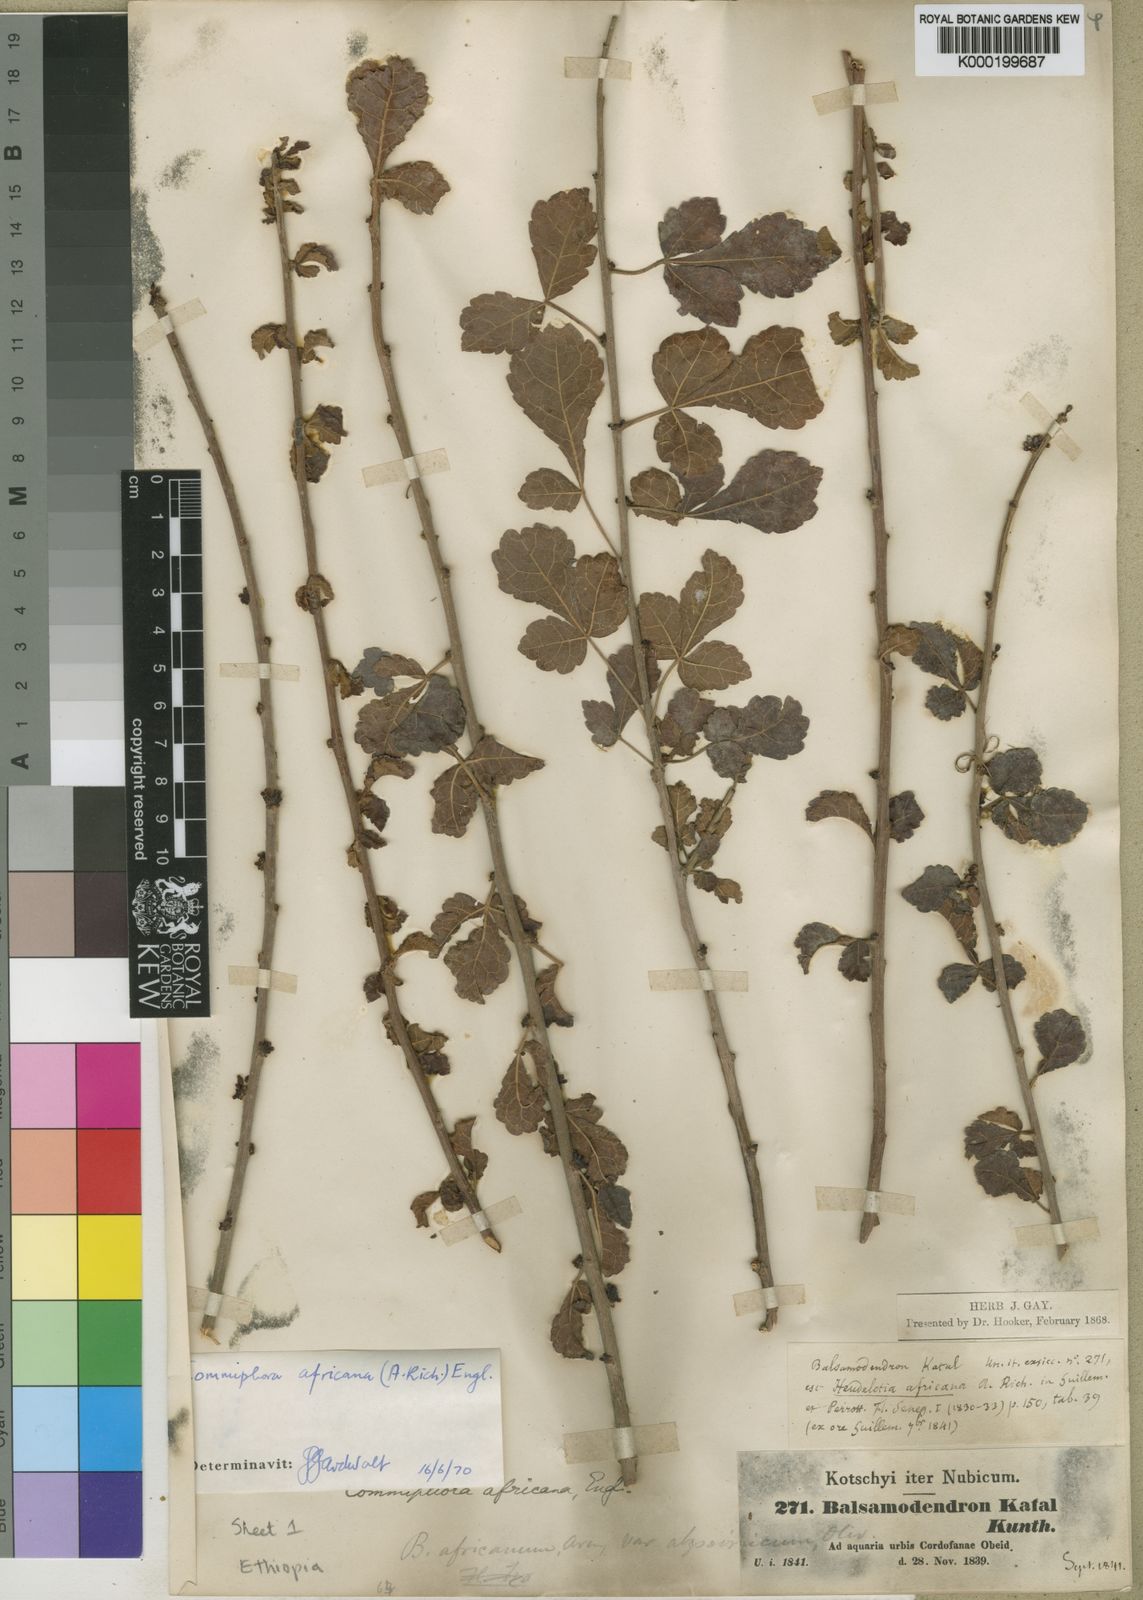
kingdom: Plantae
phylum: Tracheophyta
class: Magnoliopsida
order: Sapindales
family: Burseraceae
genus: Commiphora
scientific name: Commiphora africana
